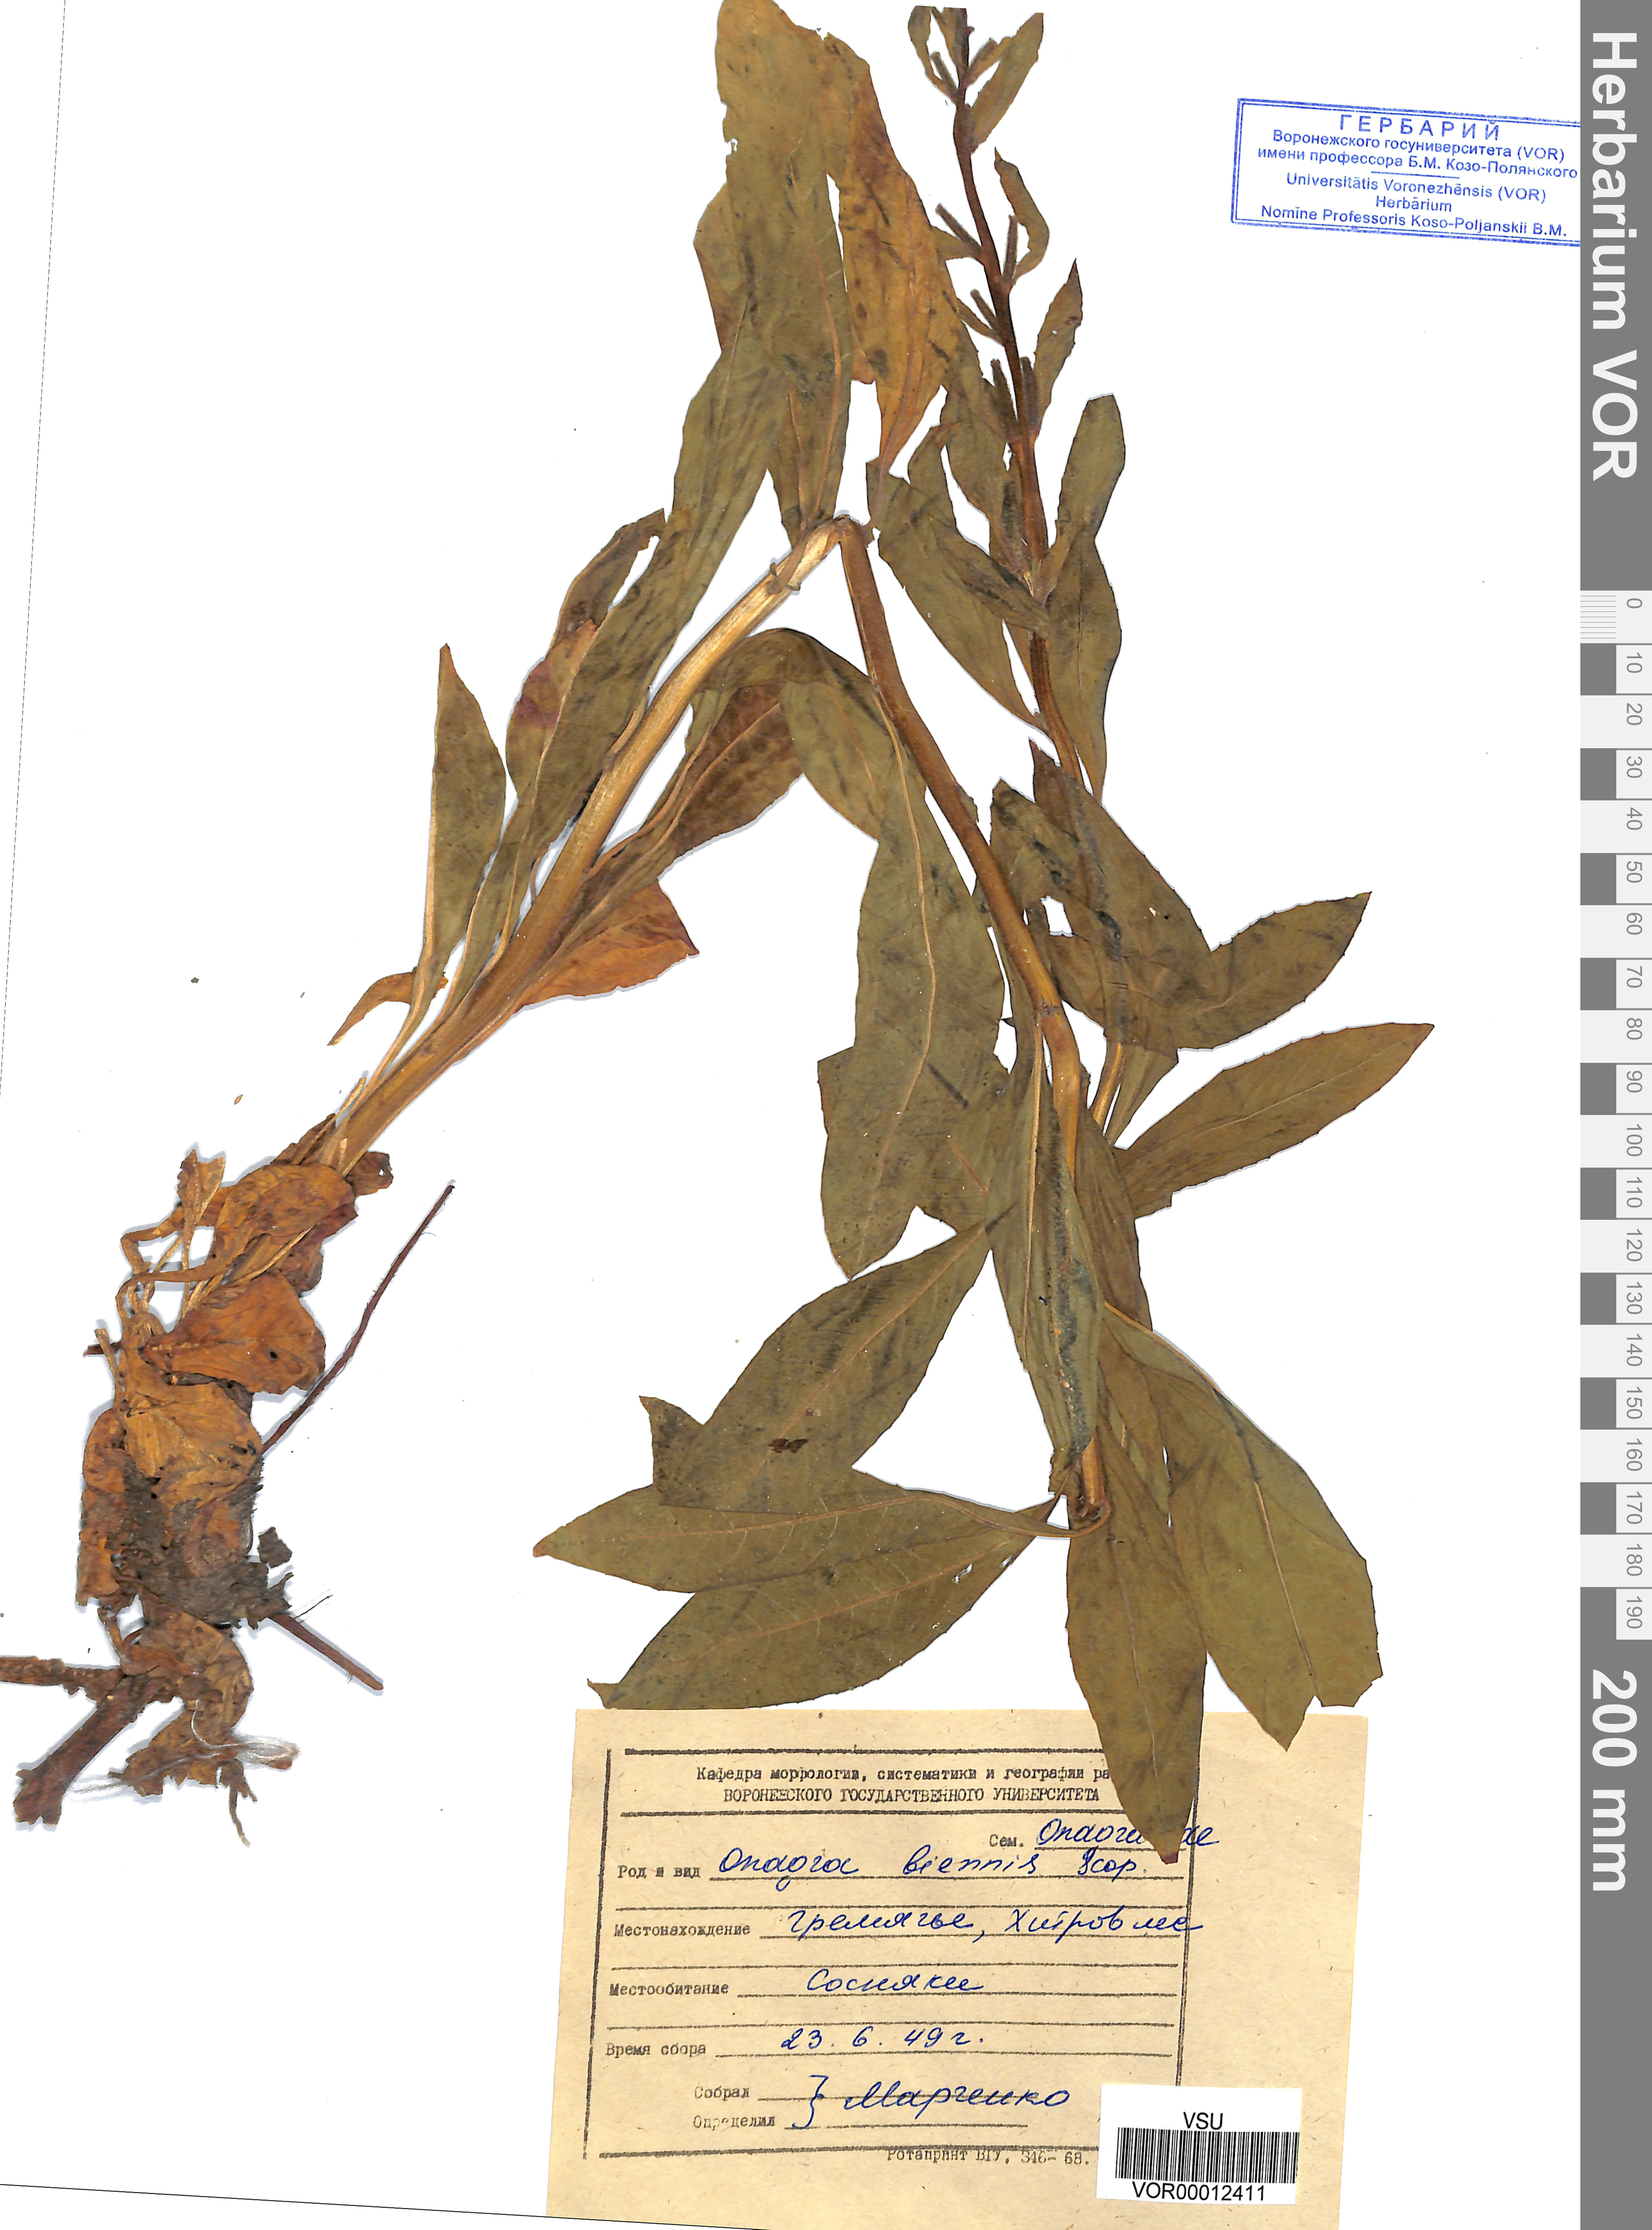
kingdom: Plantae
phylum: Tracheophyta
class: Magnoliopsida
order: Myrtales
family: Onagraceae
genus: Oenothera
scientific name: Oenothera biennis
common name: Common evening-primrose
